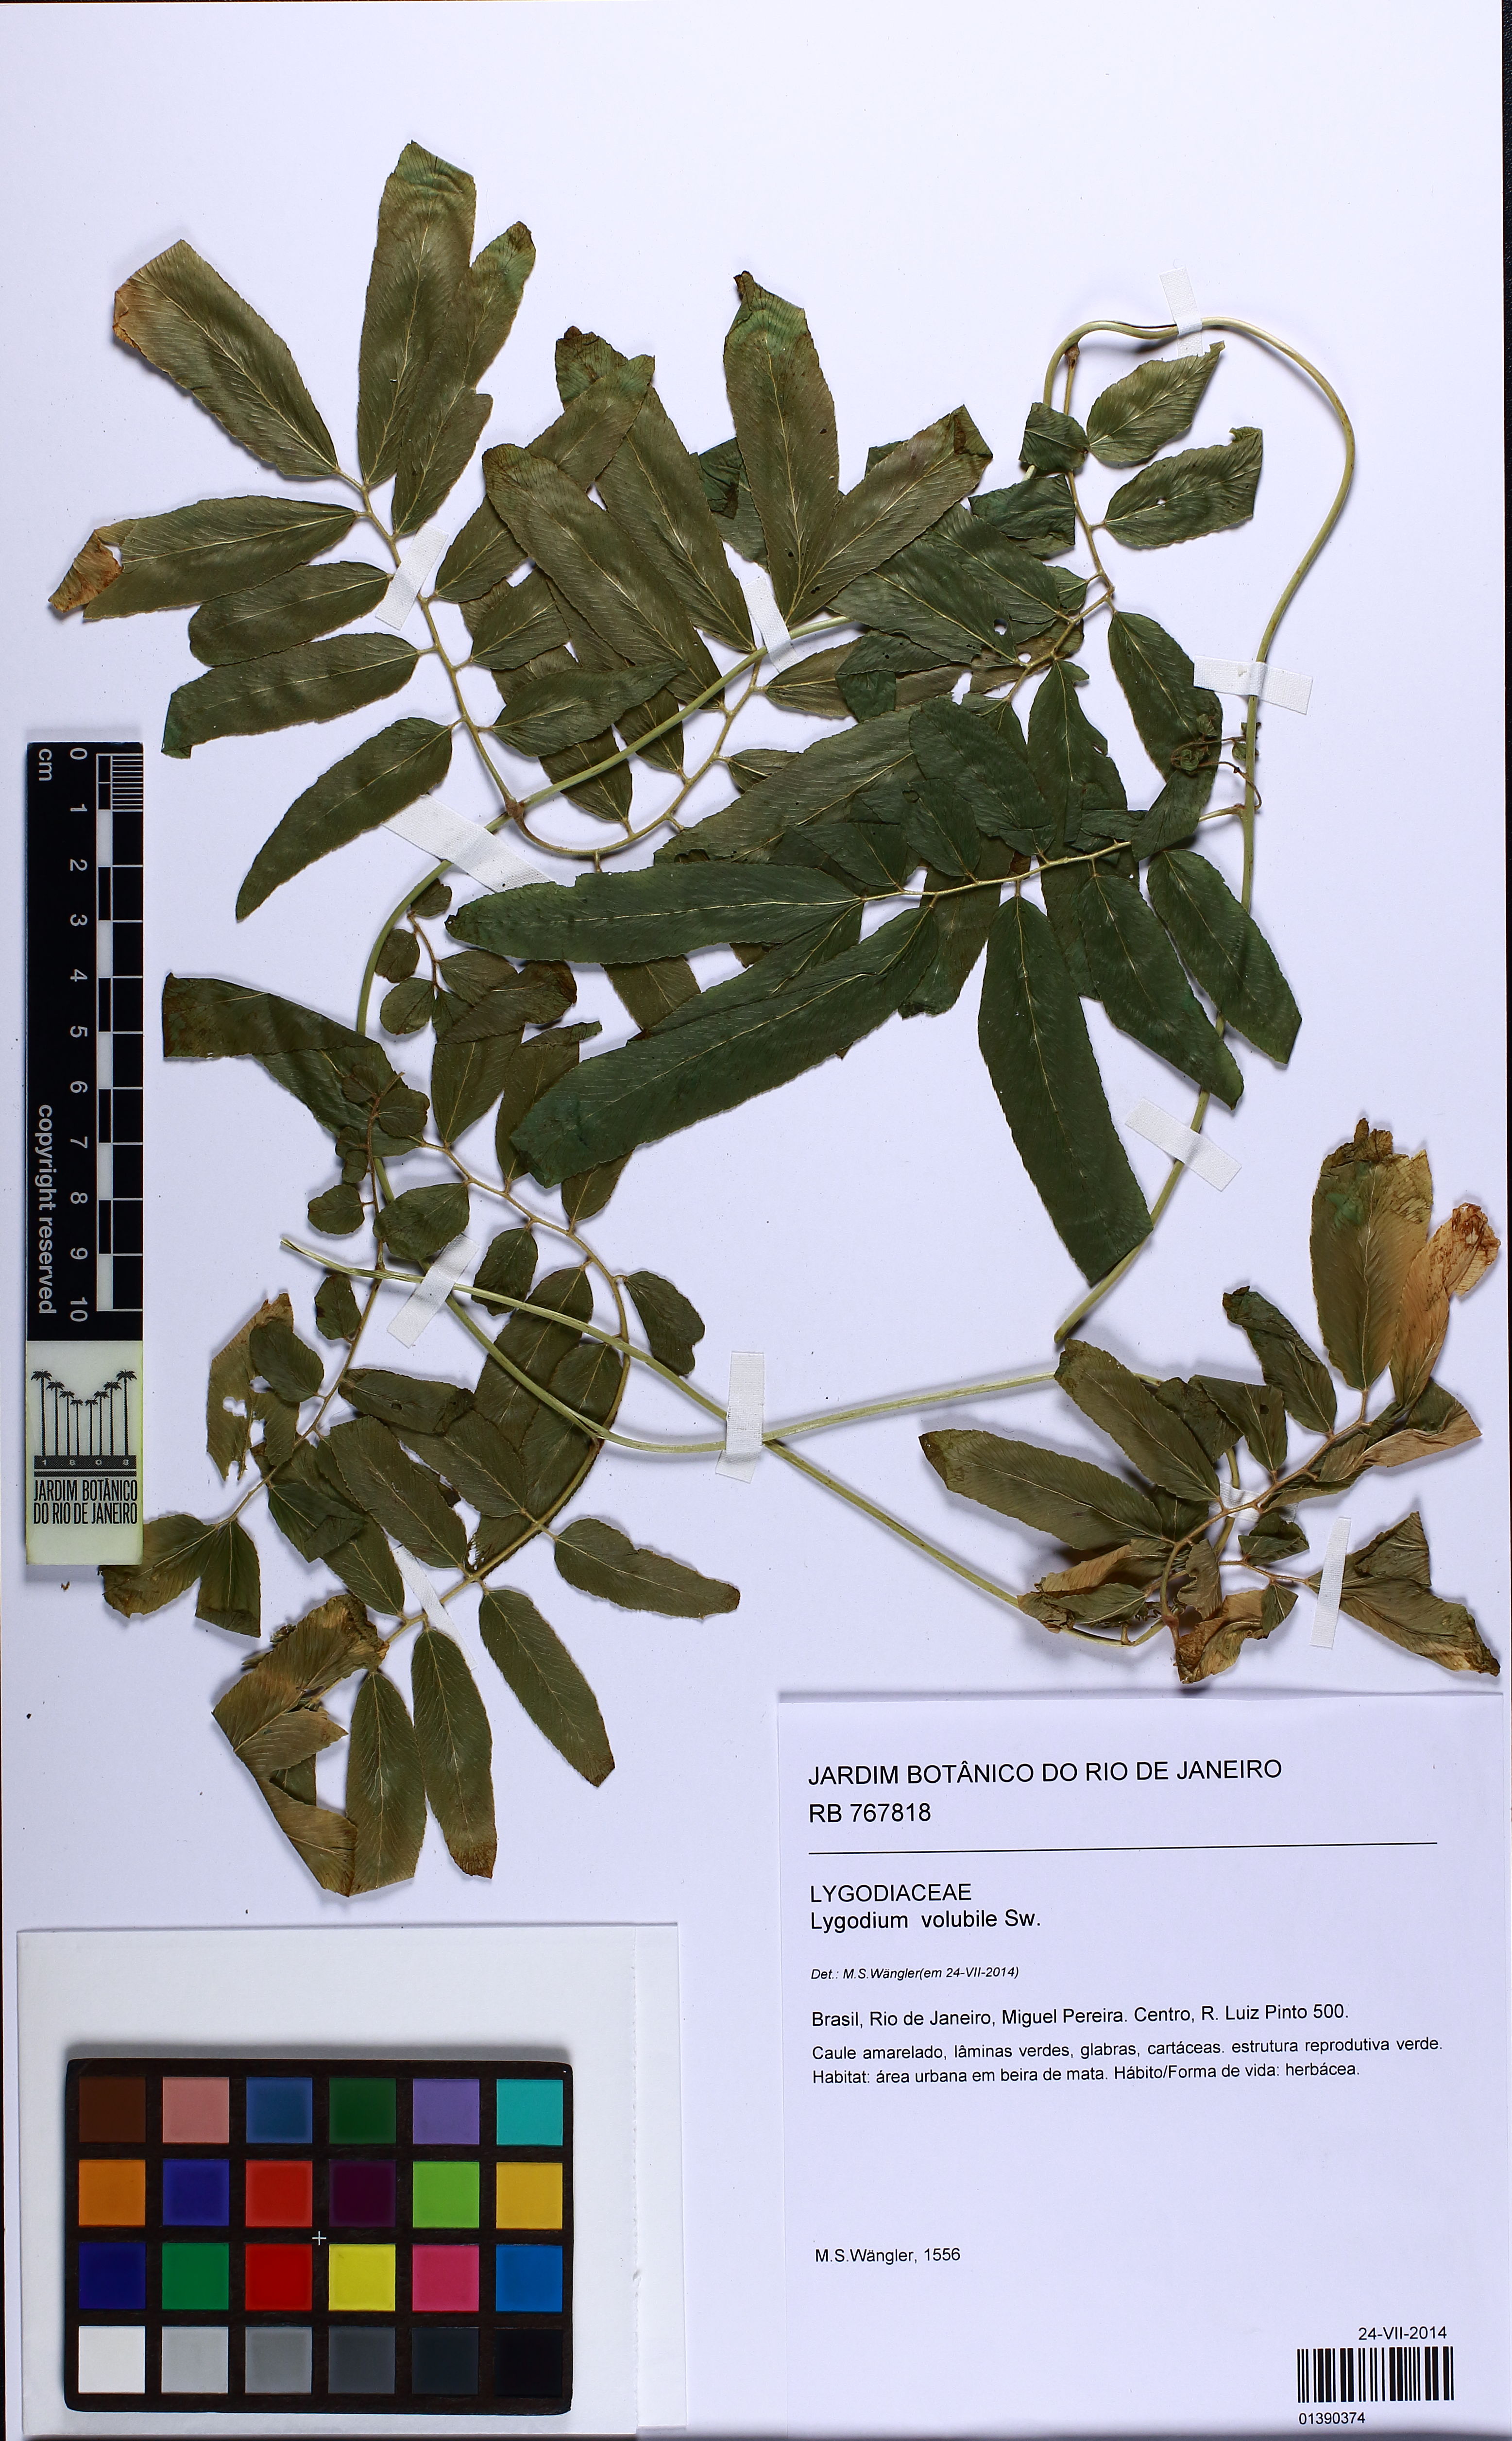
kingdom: Plantae
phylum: Tracheophyta
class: Polypodiopsida
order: Schizaeales
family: Lygodiaceae
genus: Lygodium
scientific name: Lygodium volubile
